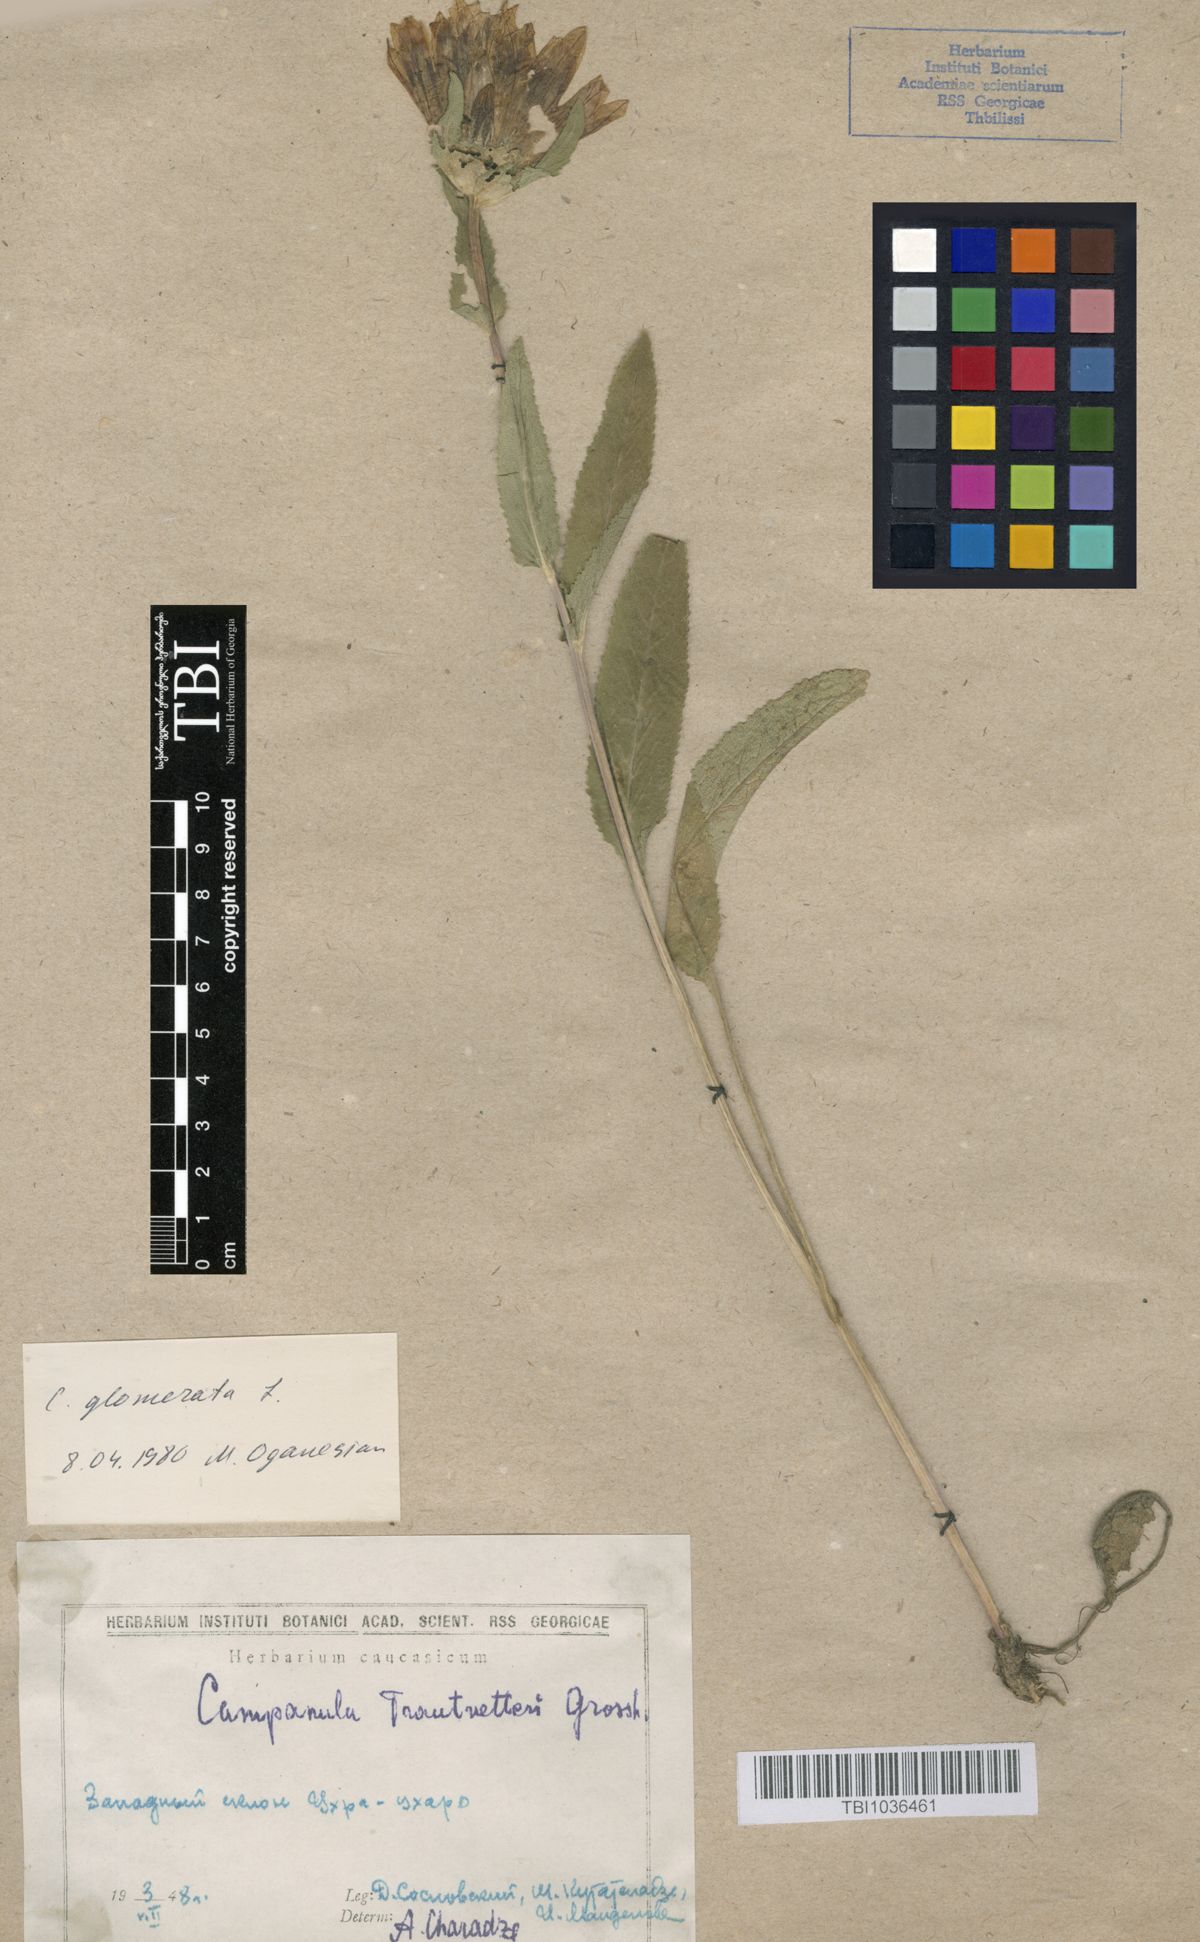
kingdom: Plantae
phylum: Tracheophyta
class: Magnoliopsida
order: Asterales
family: Campanulaceae
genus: Campanula
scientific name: Campanula glomerata
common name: Clustered bellflower
